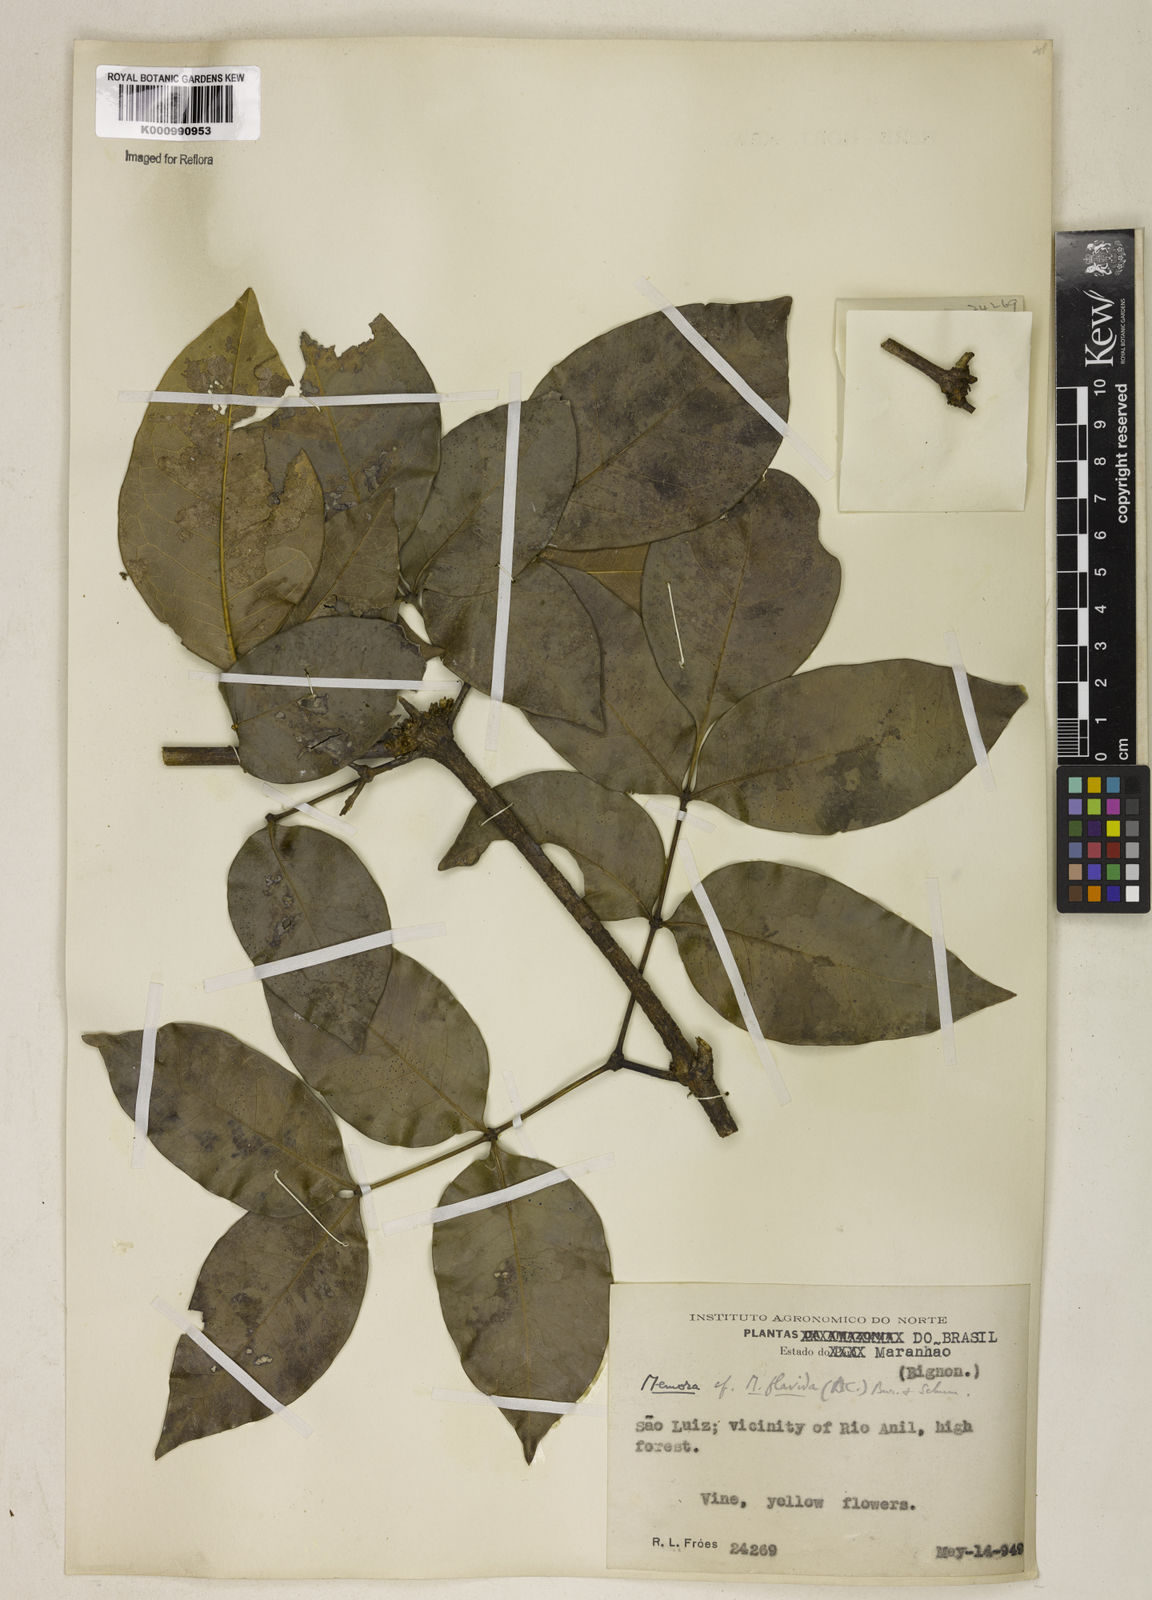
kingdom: Plantae
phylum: Tracheophyta
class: Magnoliopsida
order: Lamiales
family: Bignoniaceae
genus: Adenocalymma
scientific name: Adenocalymma neoflavidum
